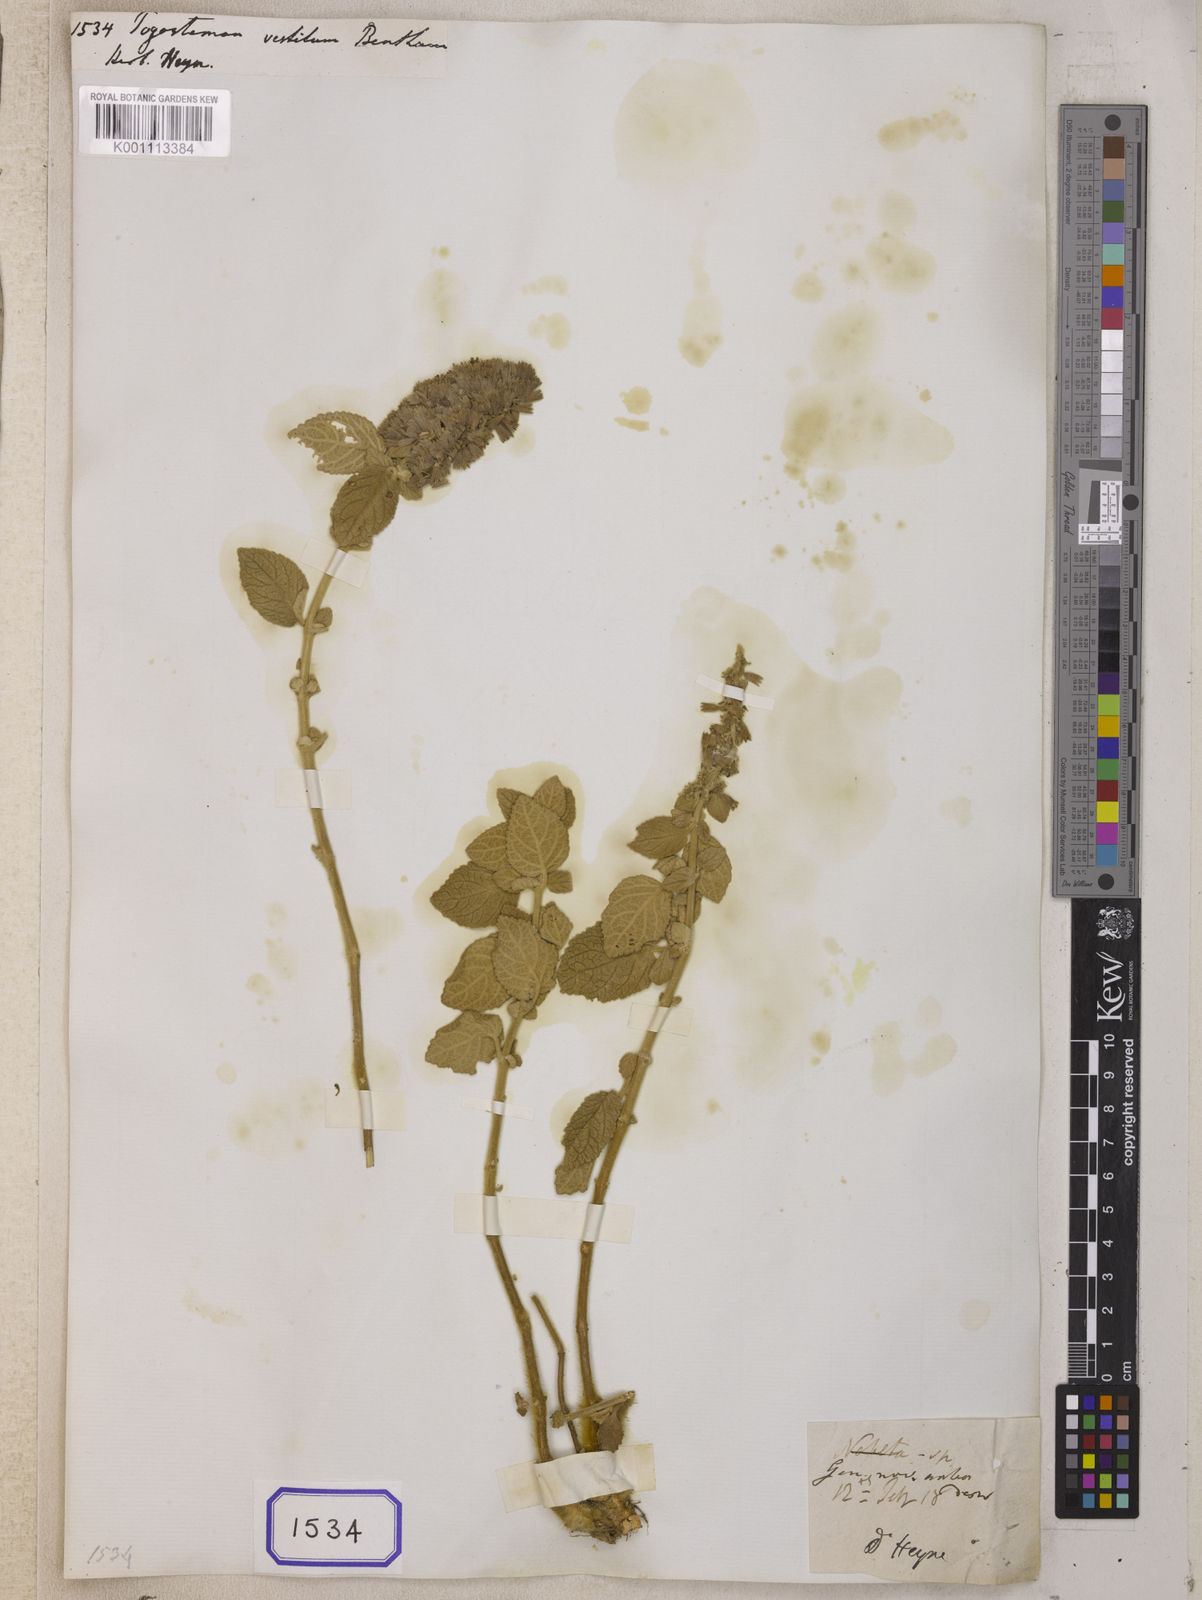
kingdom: Plantae
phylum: Tracheophyta
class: Magnoliopsida
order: Lamiales
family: Lamiaceae
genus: Pogostemon
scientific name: Pogostemon vestitus
